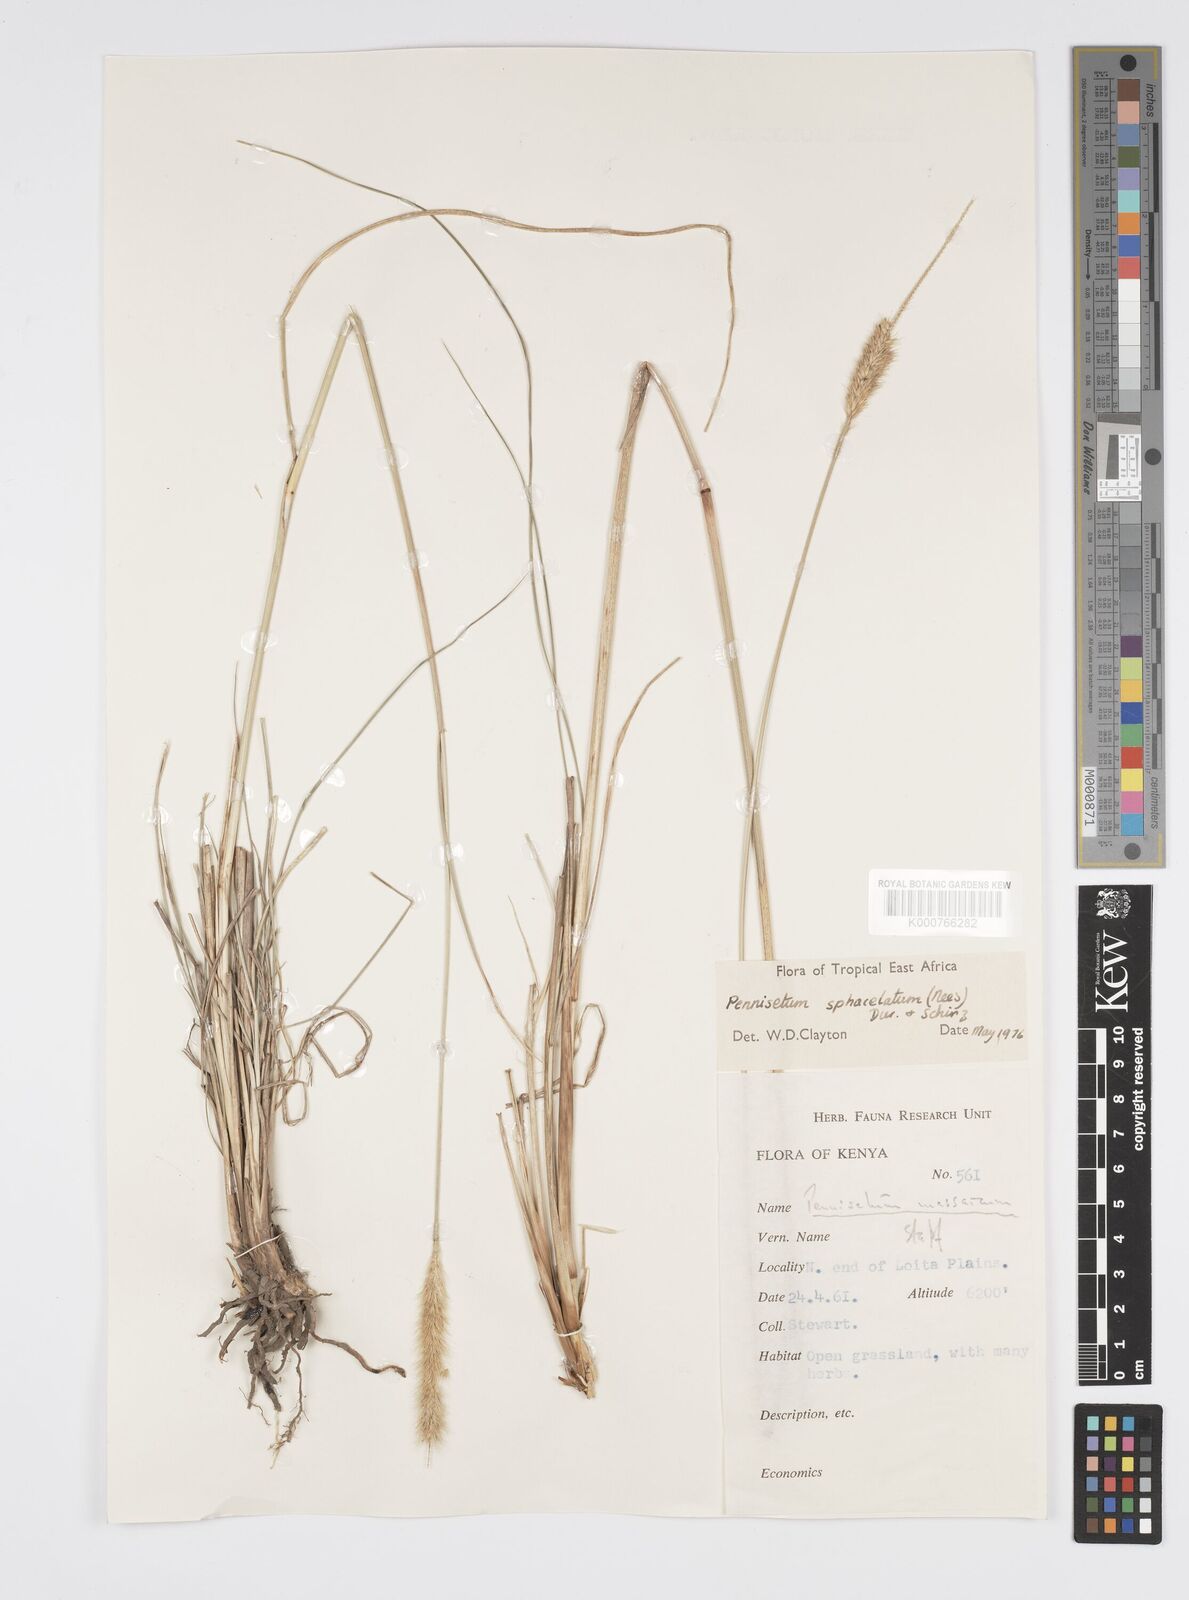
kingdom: Plantae
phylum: Tracheophyta
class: Liliopsida
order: Poales
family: Poaceae
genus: Cenchrus
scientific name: Cenchrus sphacelatus
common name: Bulgras
